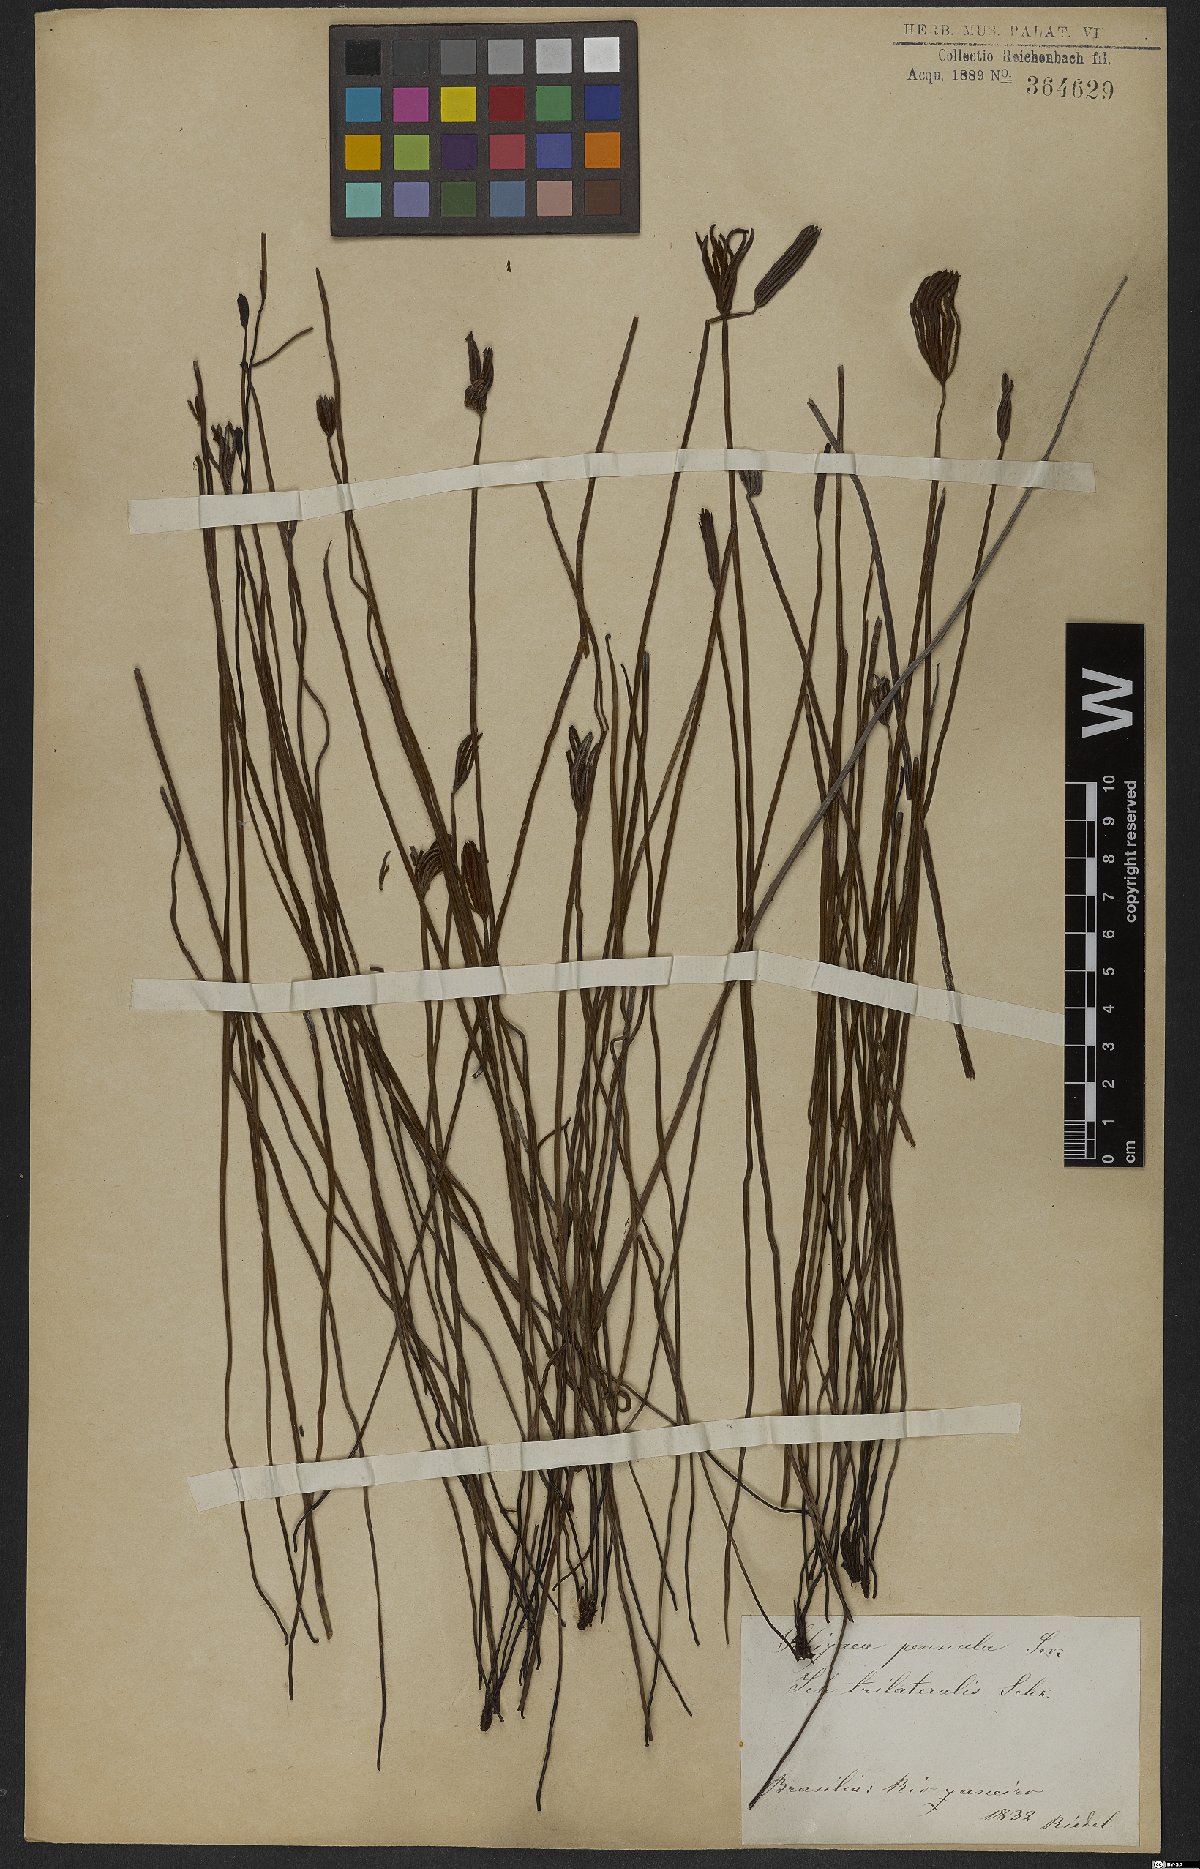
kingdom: Plantae
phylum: Tracheophyta
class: Polypodiopsida
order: Schizaeales
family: Schizaeaceae
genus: Actinostachys
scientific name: Actinostachys pennula
